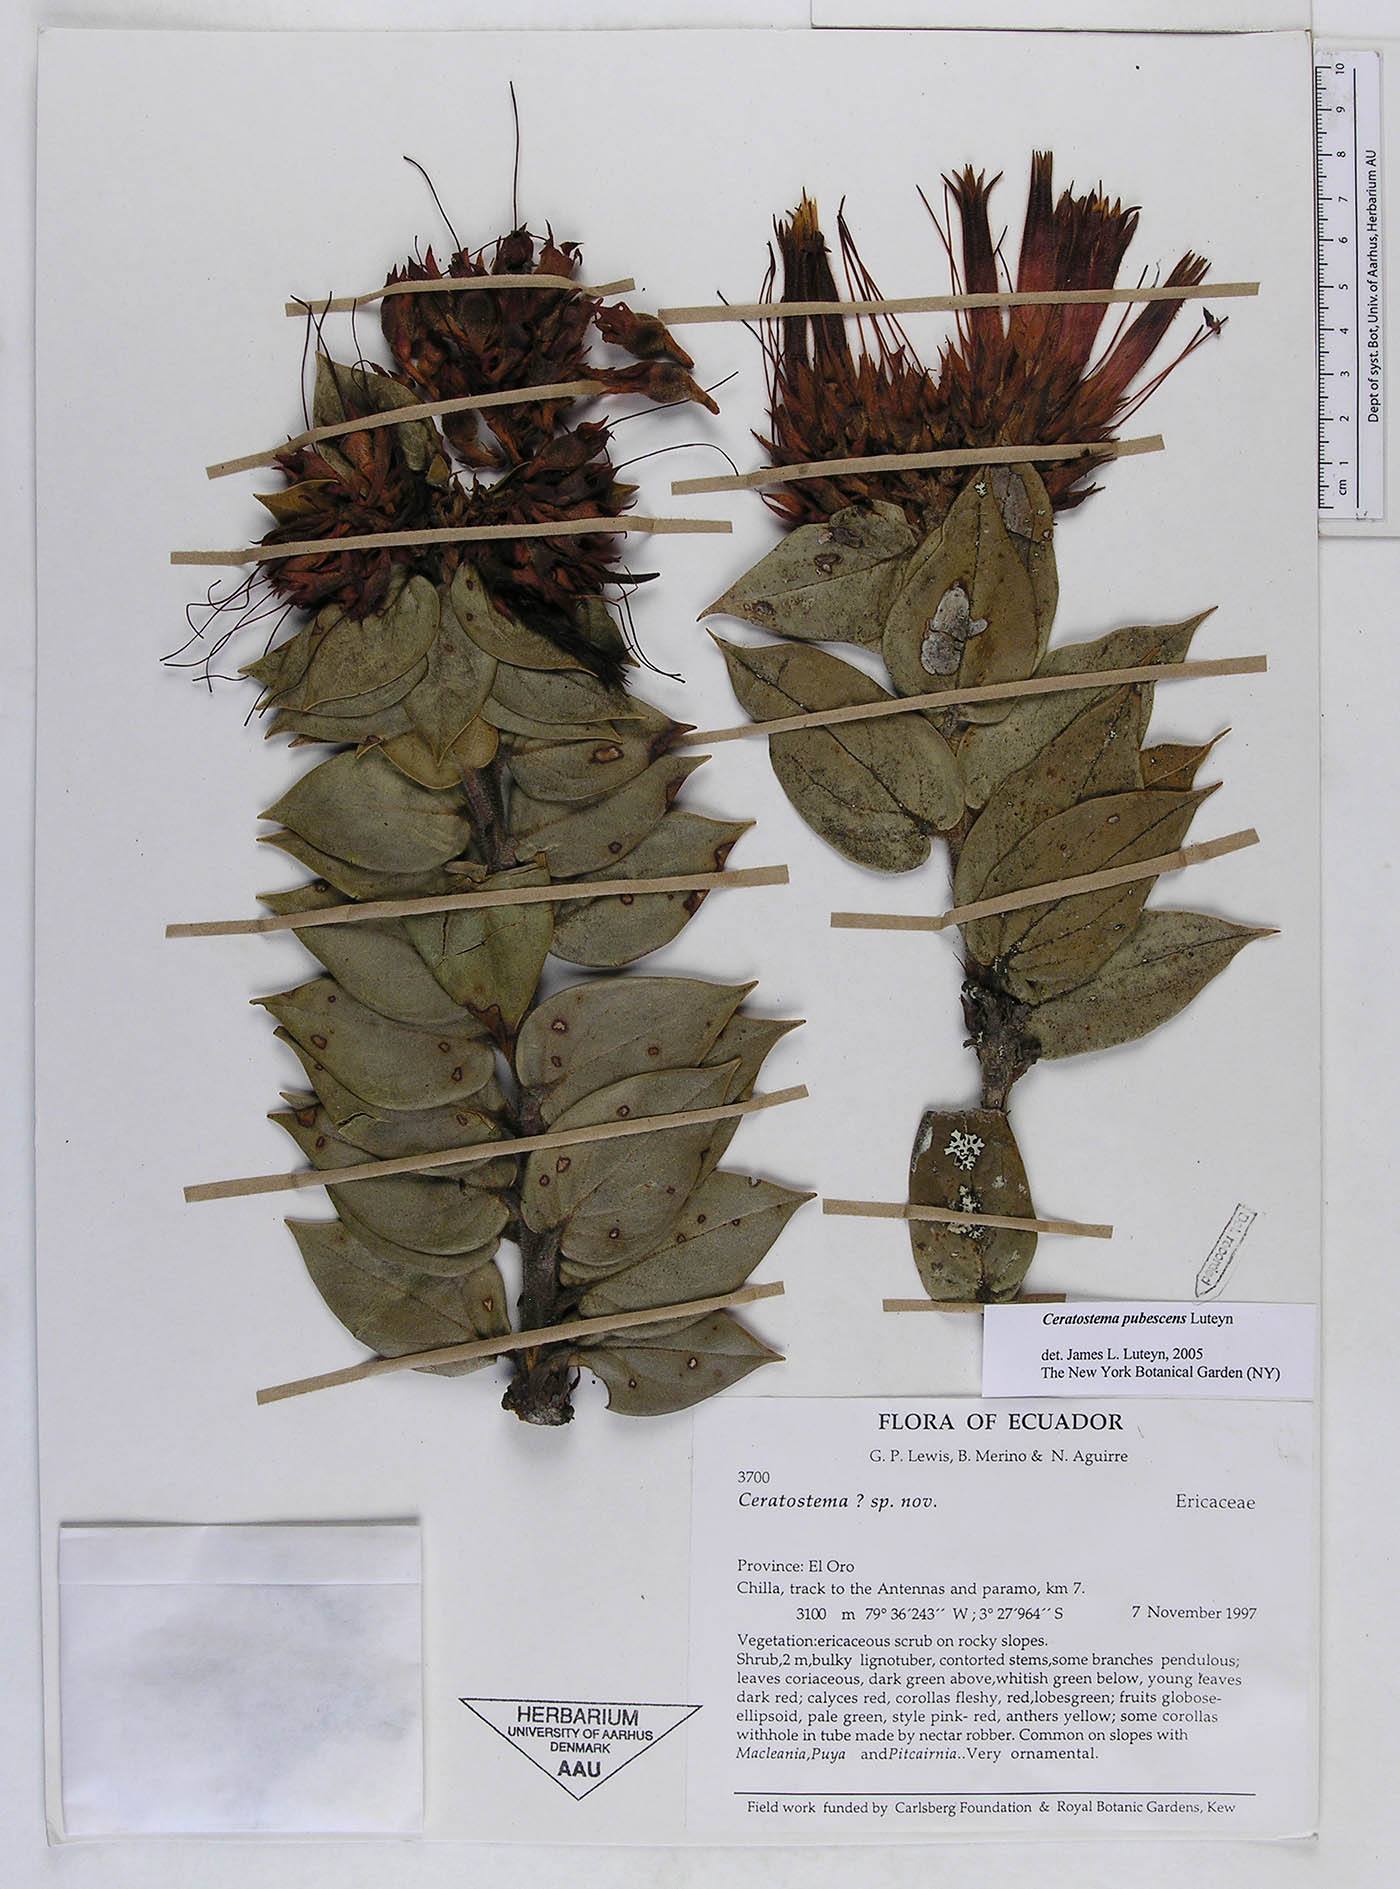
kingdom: Plantae
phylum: Tracheophyta
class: Magnoliopsida
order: Ericales
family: Ericaceae
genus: Ceratostema
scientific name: Ceratostema pubescens
